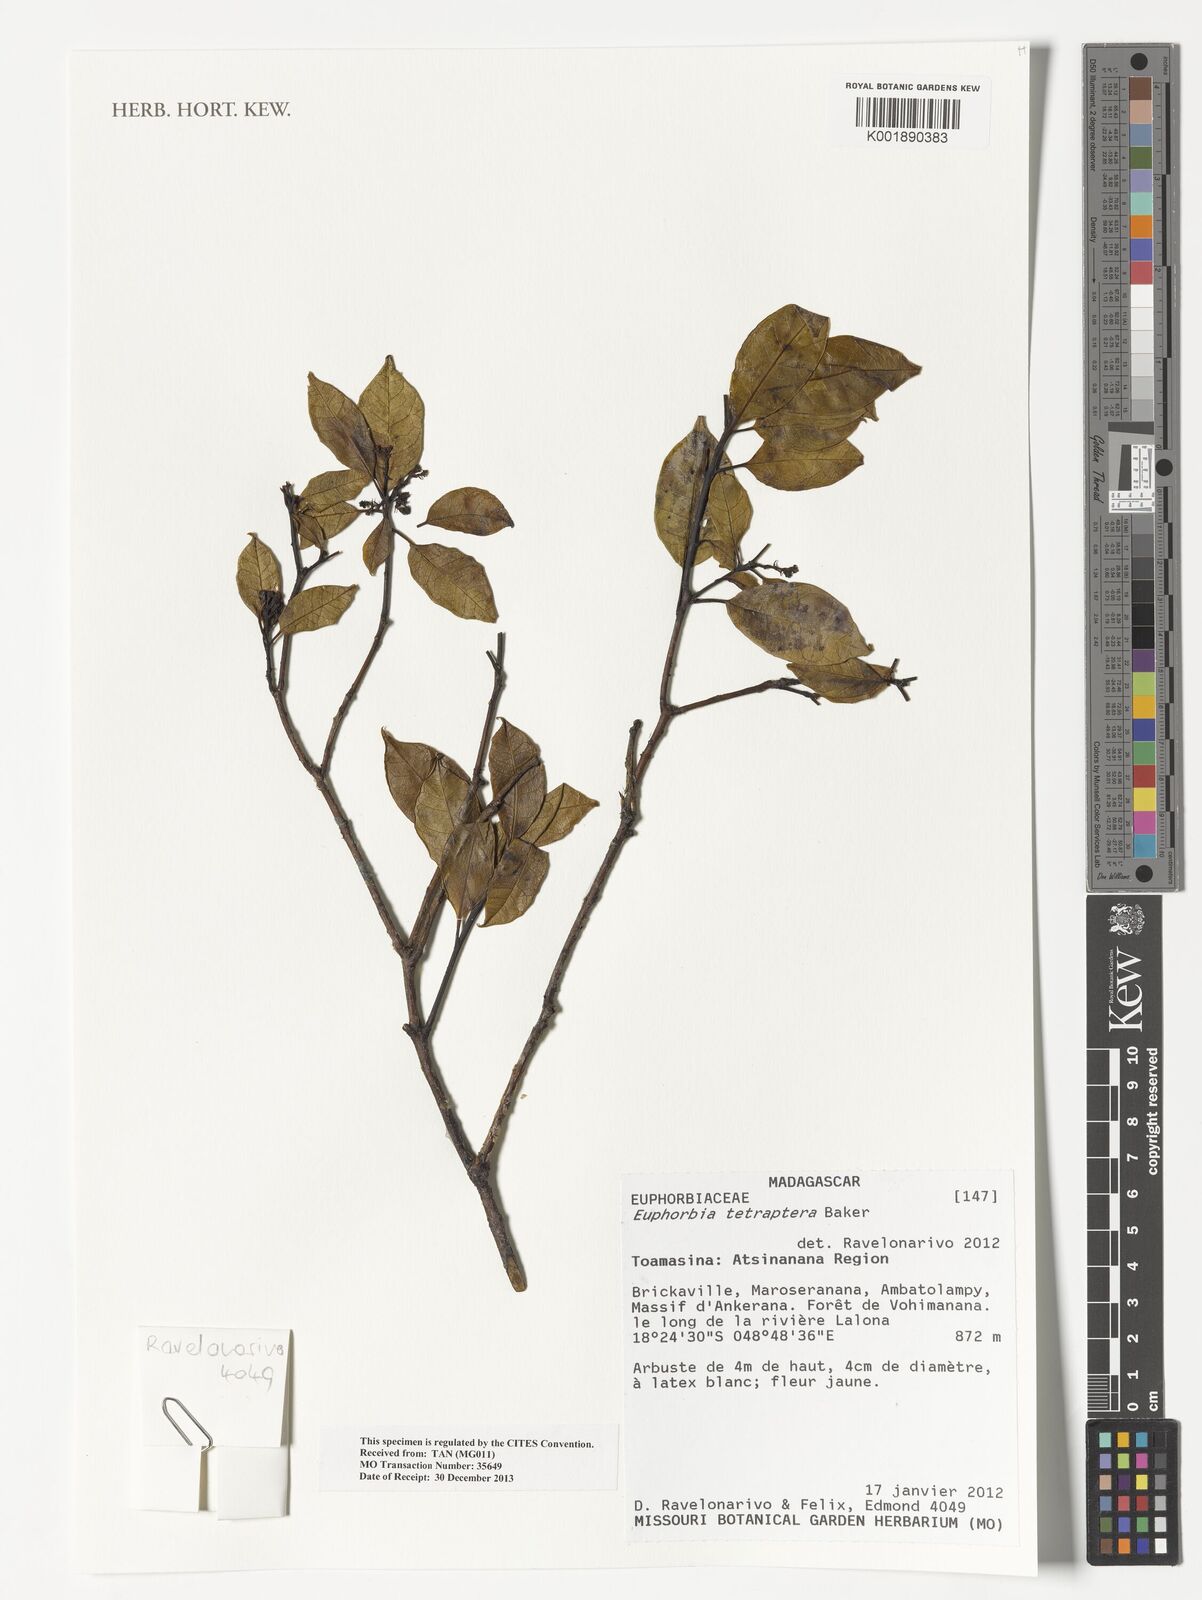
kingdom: Plantae
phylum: Tracheophyta
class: Magnoliopsida
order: Malpighiales
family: Euphorbiaceae
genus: Euphorbia
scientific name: Euphorbia tetraptera
